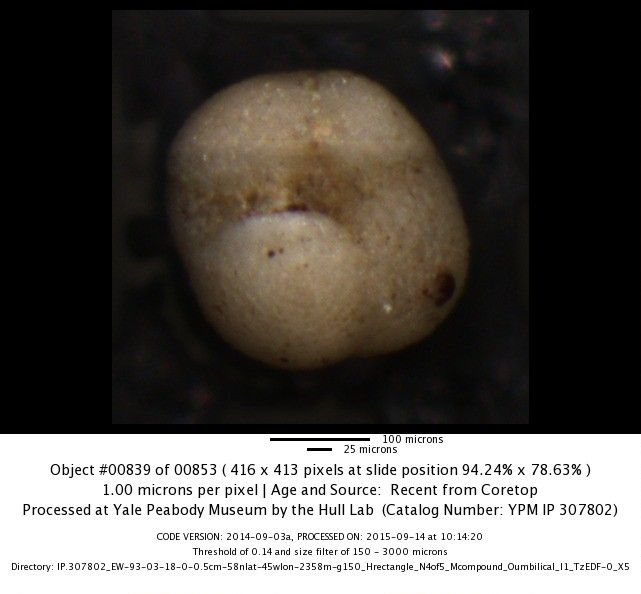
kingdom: Chromista
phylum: Foraminifera
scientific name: Foraminifera
